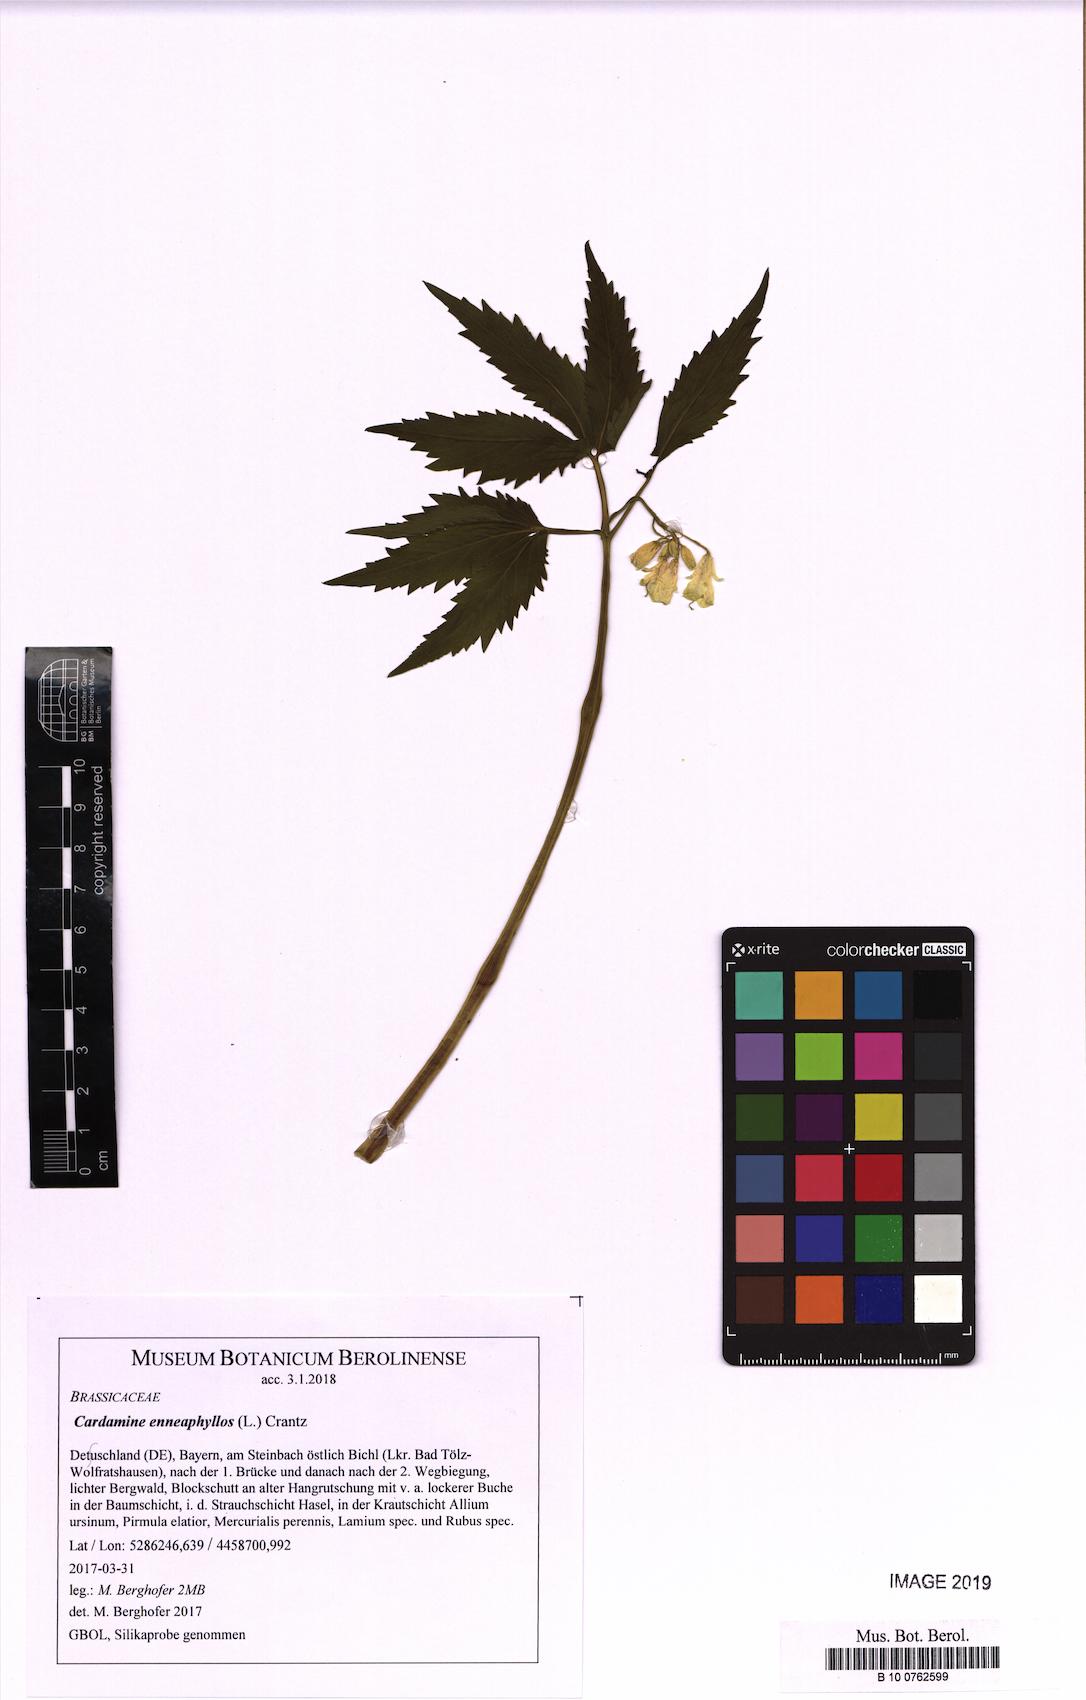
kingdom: Plantae
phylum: Tracheophyta
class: Magnoliopsida
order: Brassicales
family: Brassicaceae
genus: Cardamine
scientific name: Cardamine enneaphyllos
